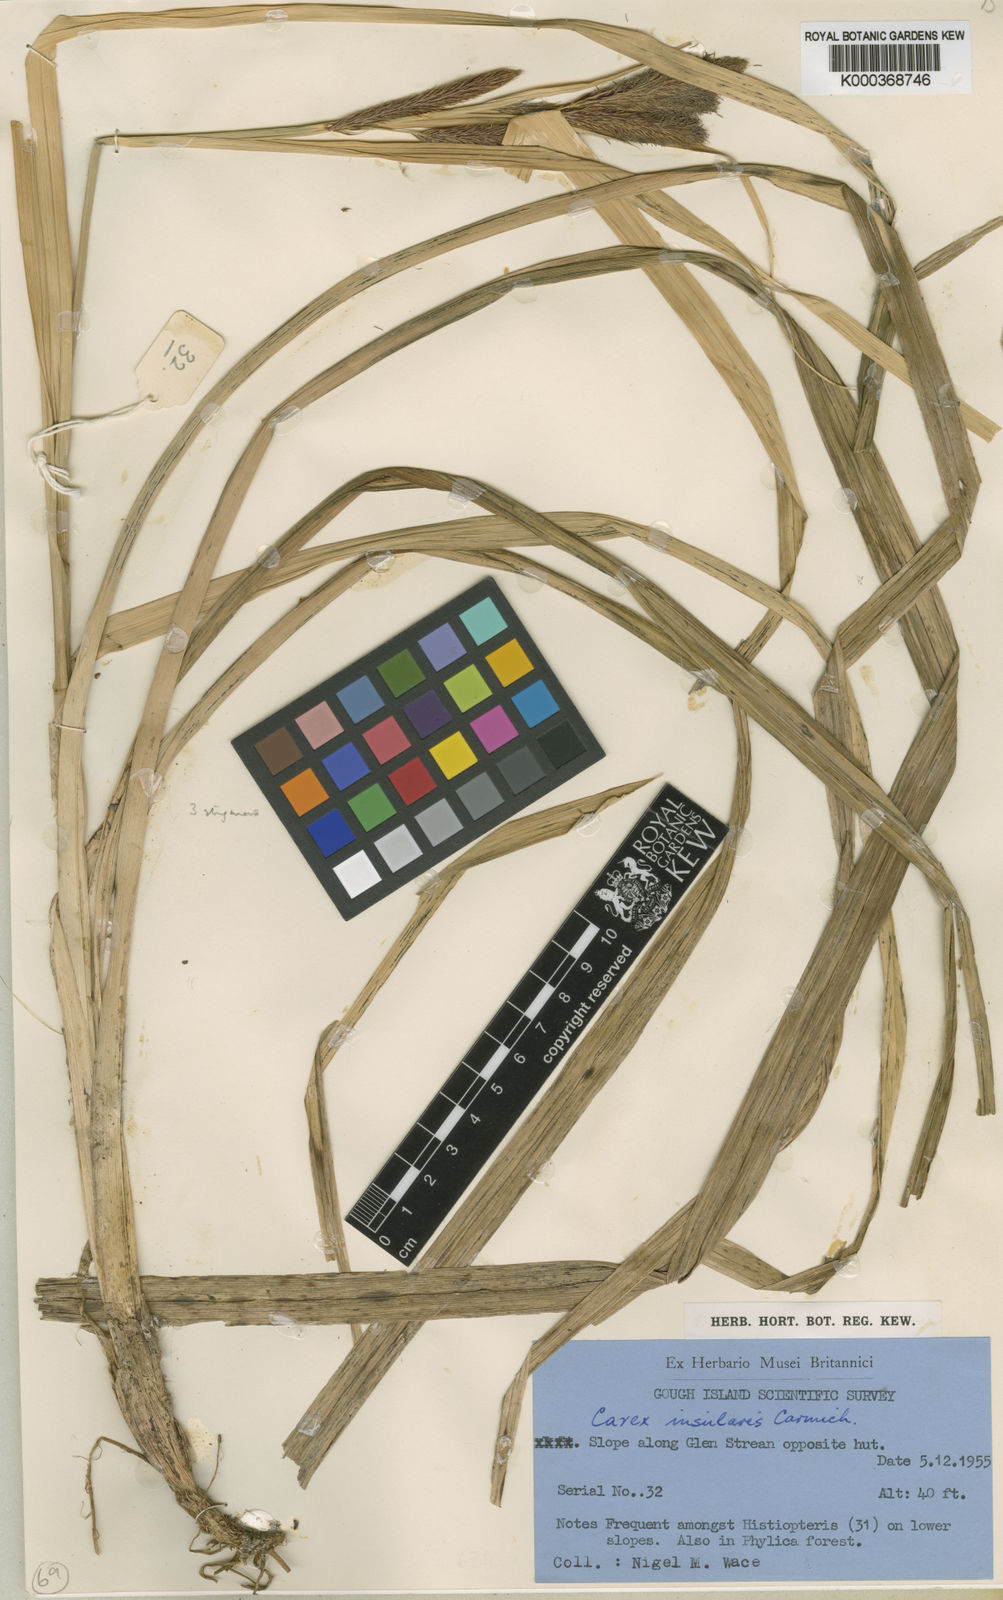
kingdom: Plantae
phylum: Tracheophyta
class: Liliopsida
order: Poales
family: Cyperaceae
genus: Carex
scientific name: Carex insularis
